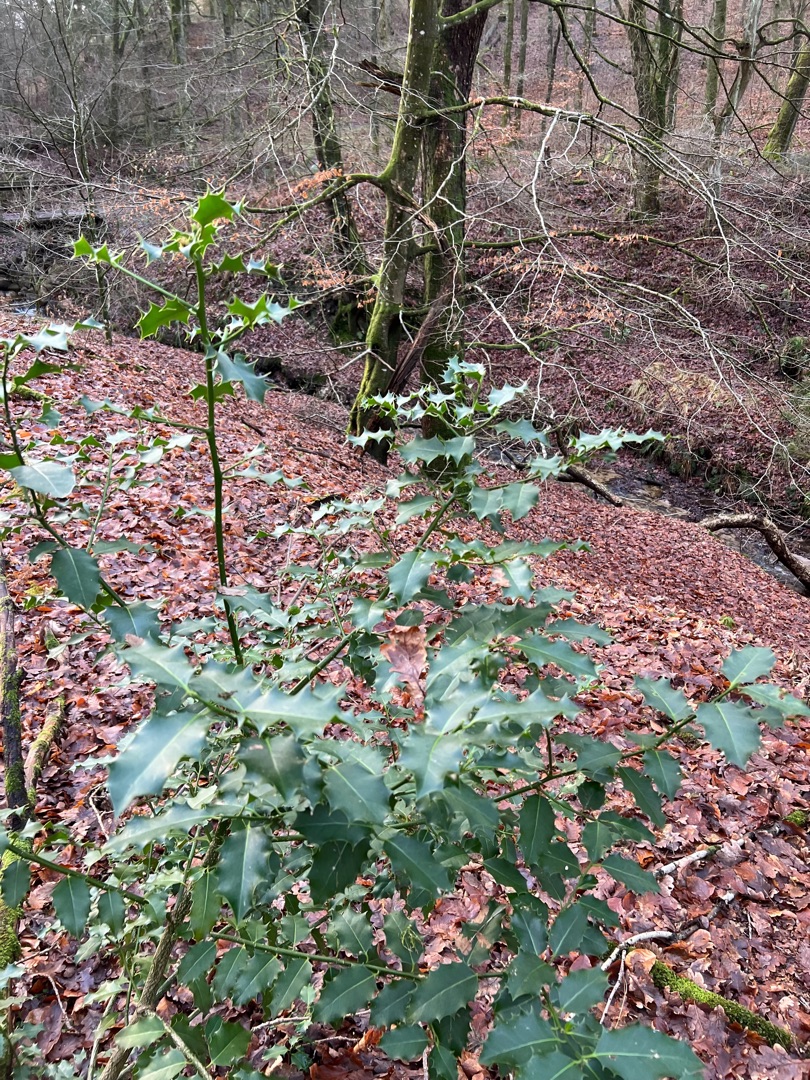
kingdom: Plantae
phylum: Tracheophyta
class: Magnoliopsida
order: Aquifoliales
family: Aquifoliaceae
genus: Ilex
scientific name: Ilex aquifolium
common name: Kristtorn
